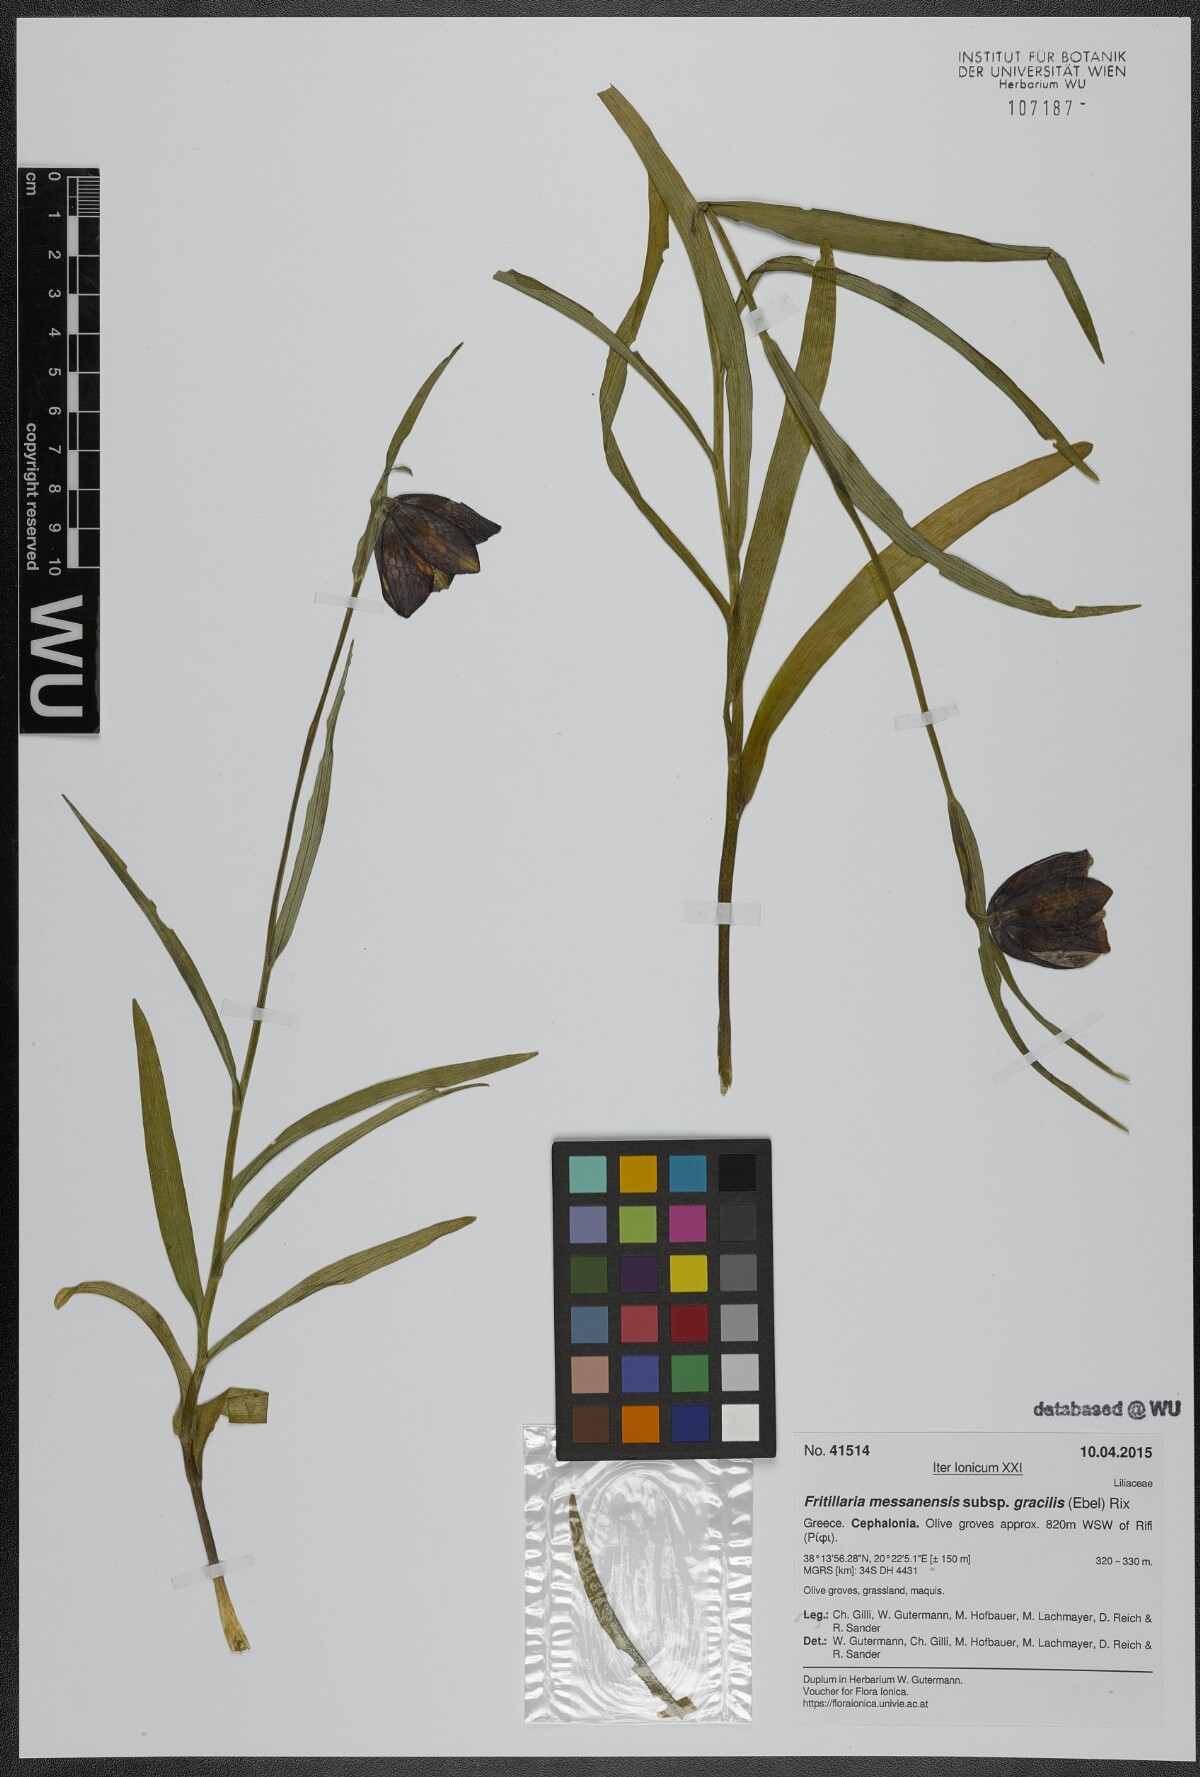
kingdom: Plantae
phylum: Tracheophyta
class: Liliopsida
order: Liliales
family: Liliaceae
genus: Fritillaria
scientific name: Fritillaria messanensis
